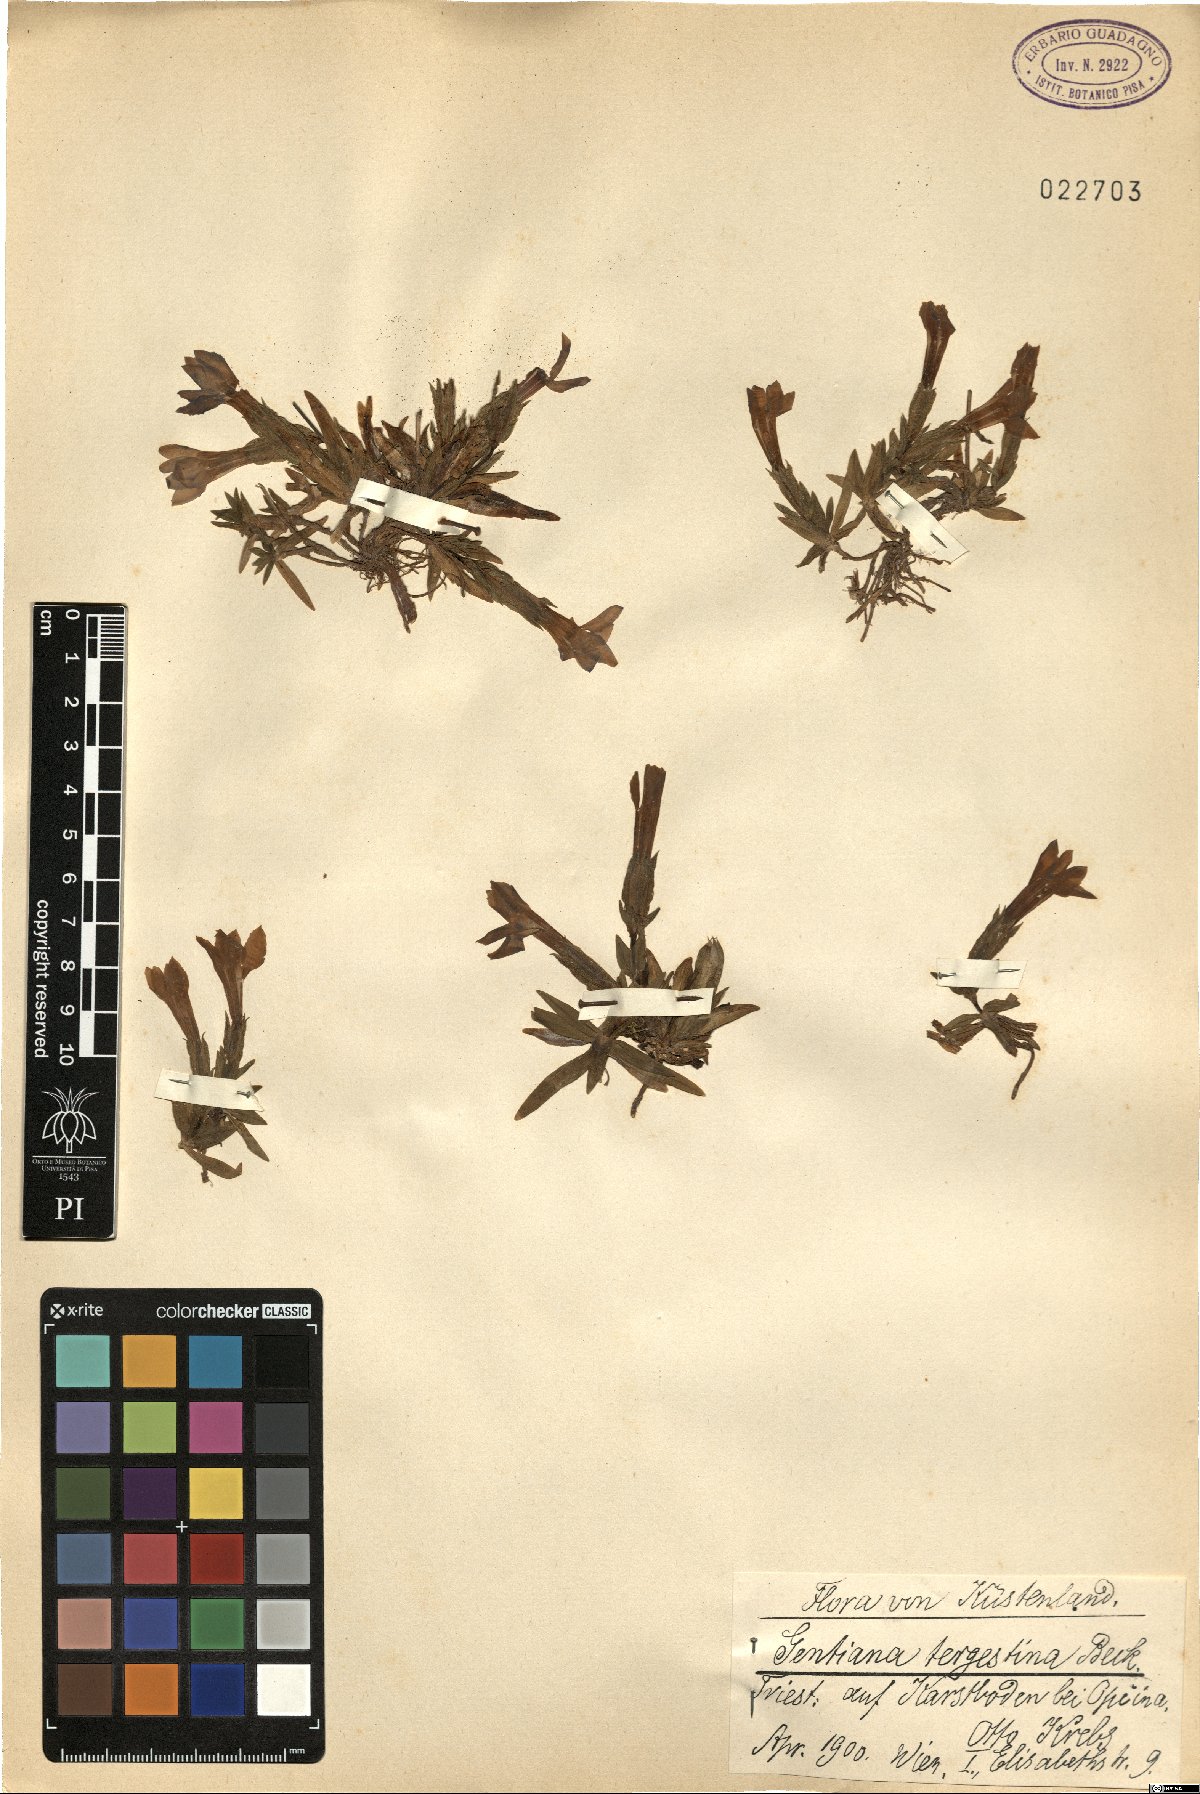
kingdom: Plantae
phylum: Tracheophyta
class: Magnoliopsida
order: Gentianales
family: Gentianaceae
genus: Gentiana
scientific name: Gentiana verna
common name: Spring gentian
